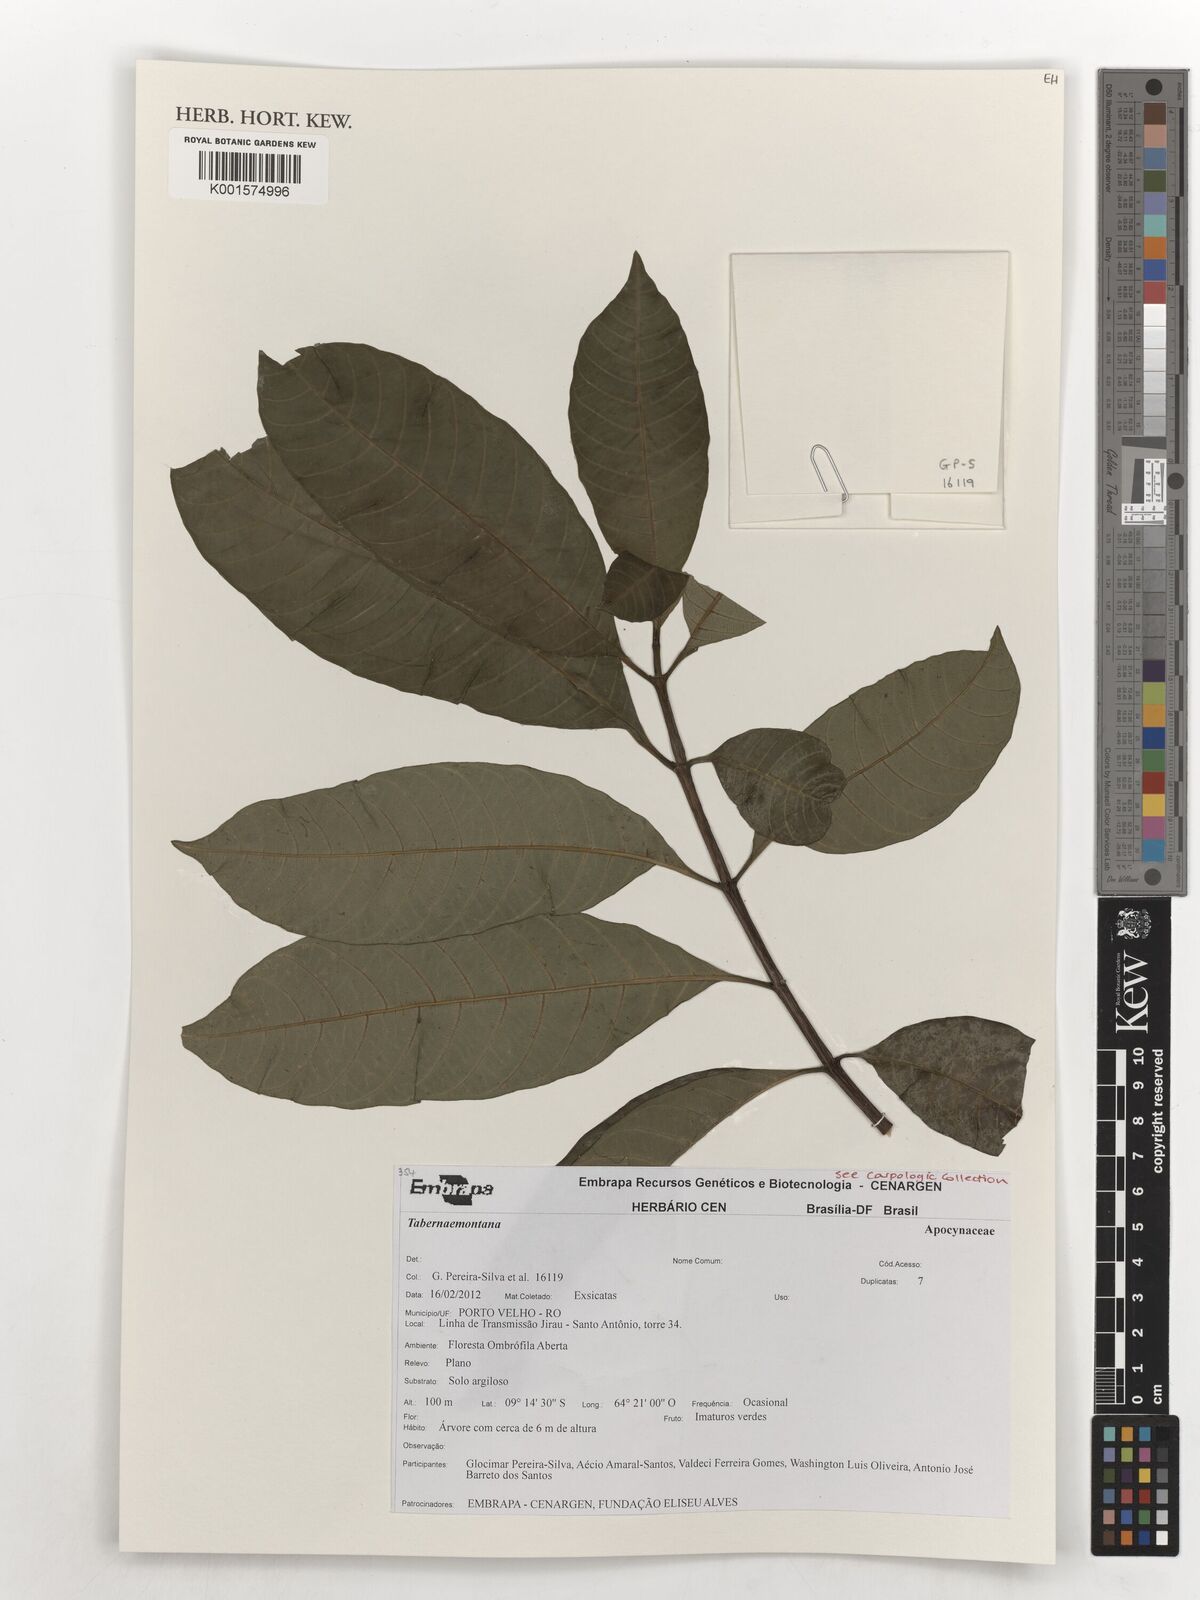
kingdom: Plantae
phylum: Tracheophyta
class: Magnoliopsida
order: Gentianales
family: Apocynaceae
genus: Tabernaemontana
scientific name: Tabernaemontana
